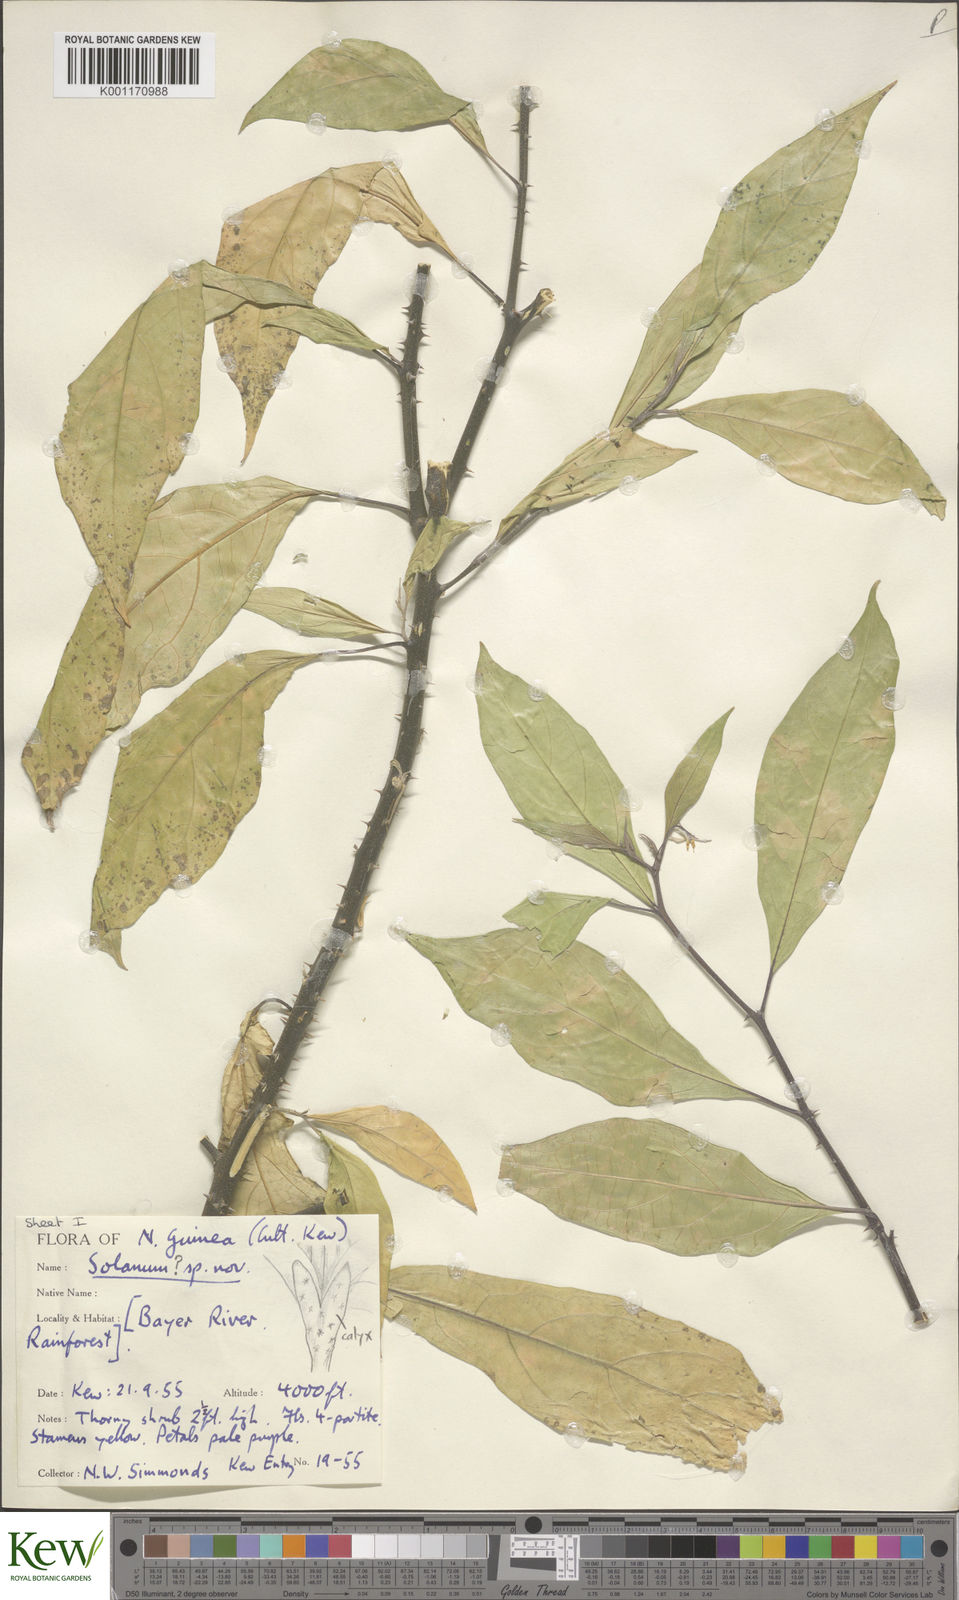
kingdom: Plantae
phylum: Tracheophyta
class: Magnoliopsida
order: Solanales
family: Solanaceae
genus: Solanum
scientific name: Solanum
